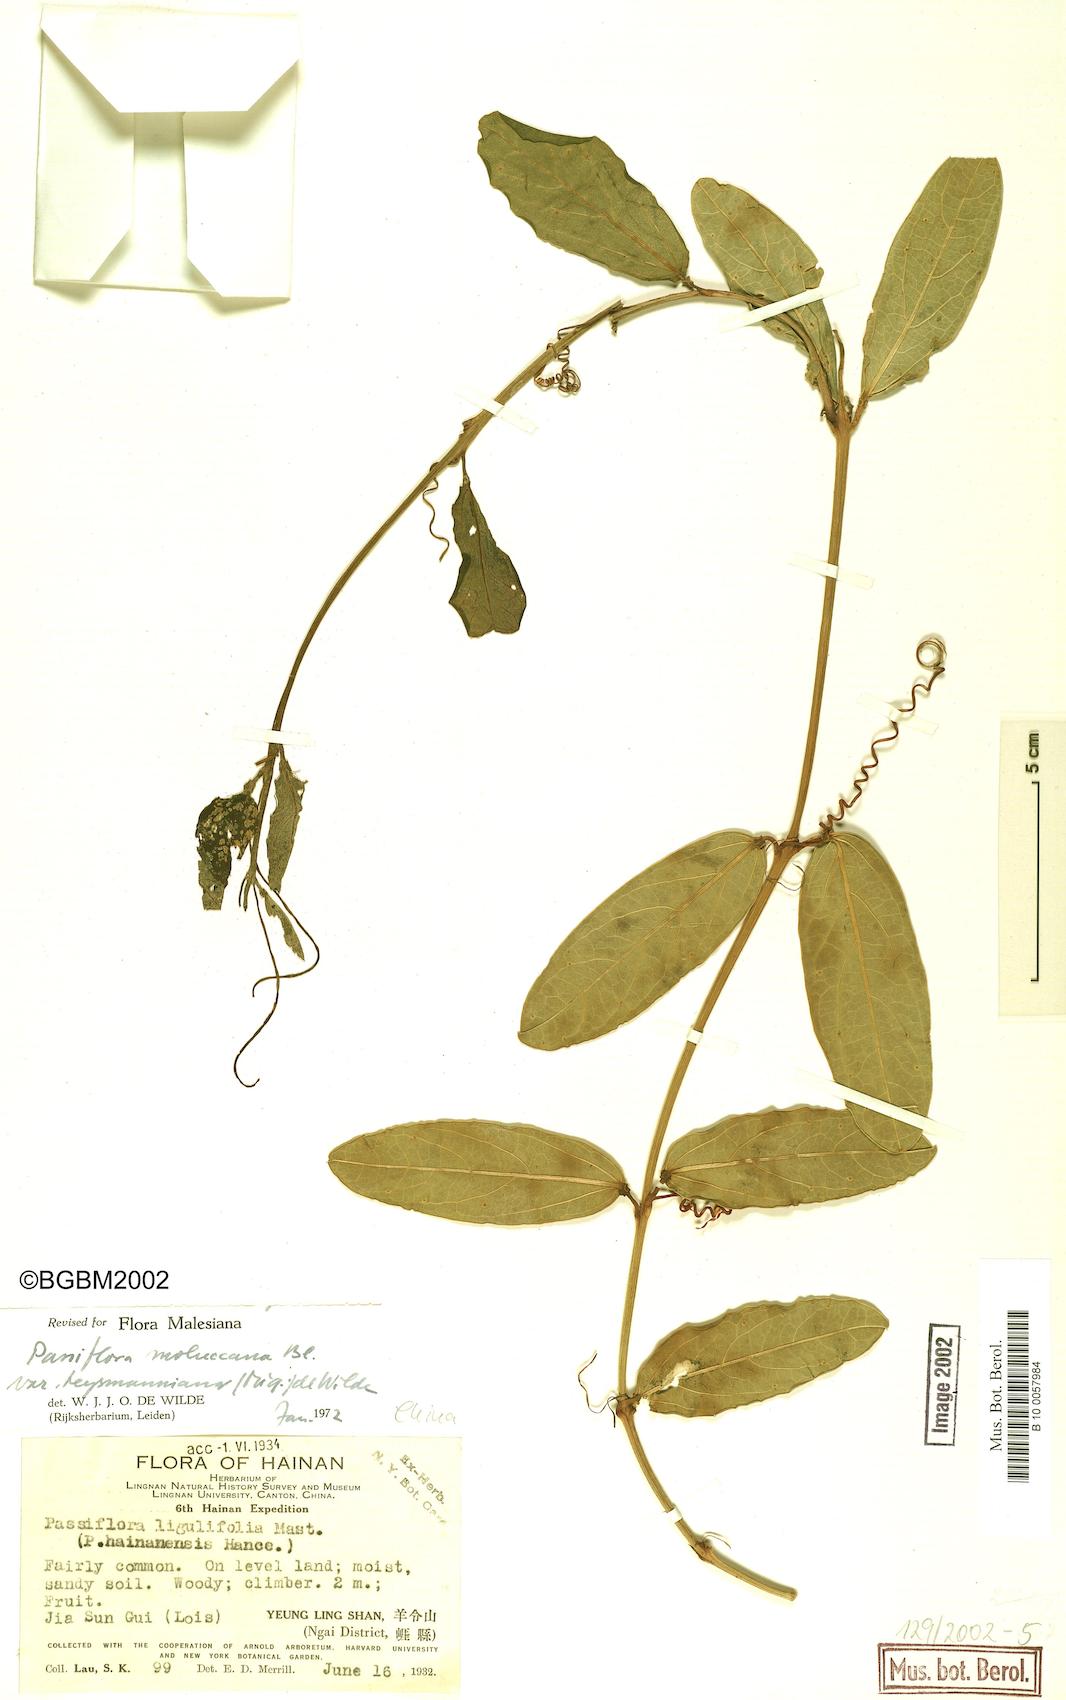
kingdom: Plantae
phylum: Tracheophyta
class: Magnoliopsida
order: Malpighiales
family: Passifloraceae
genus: Passiflora
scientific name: Passiflora moluccana
